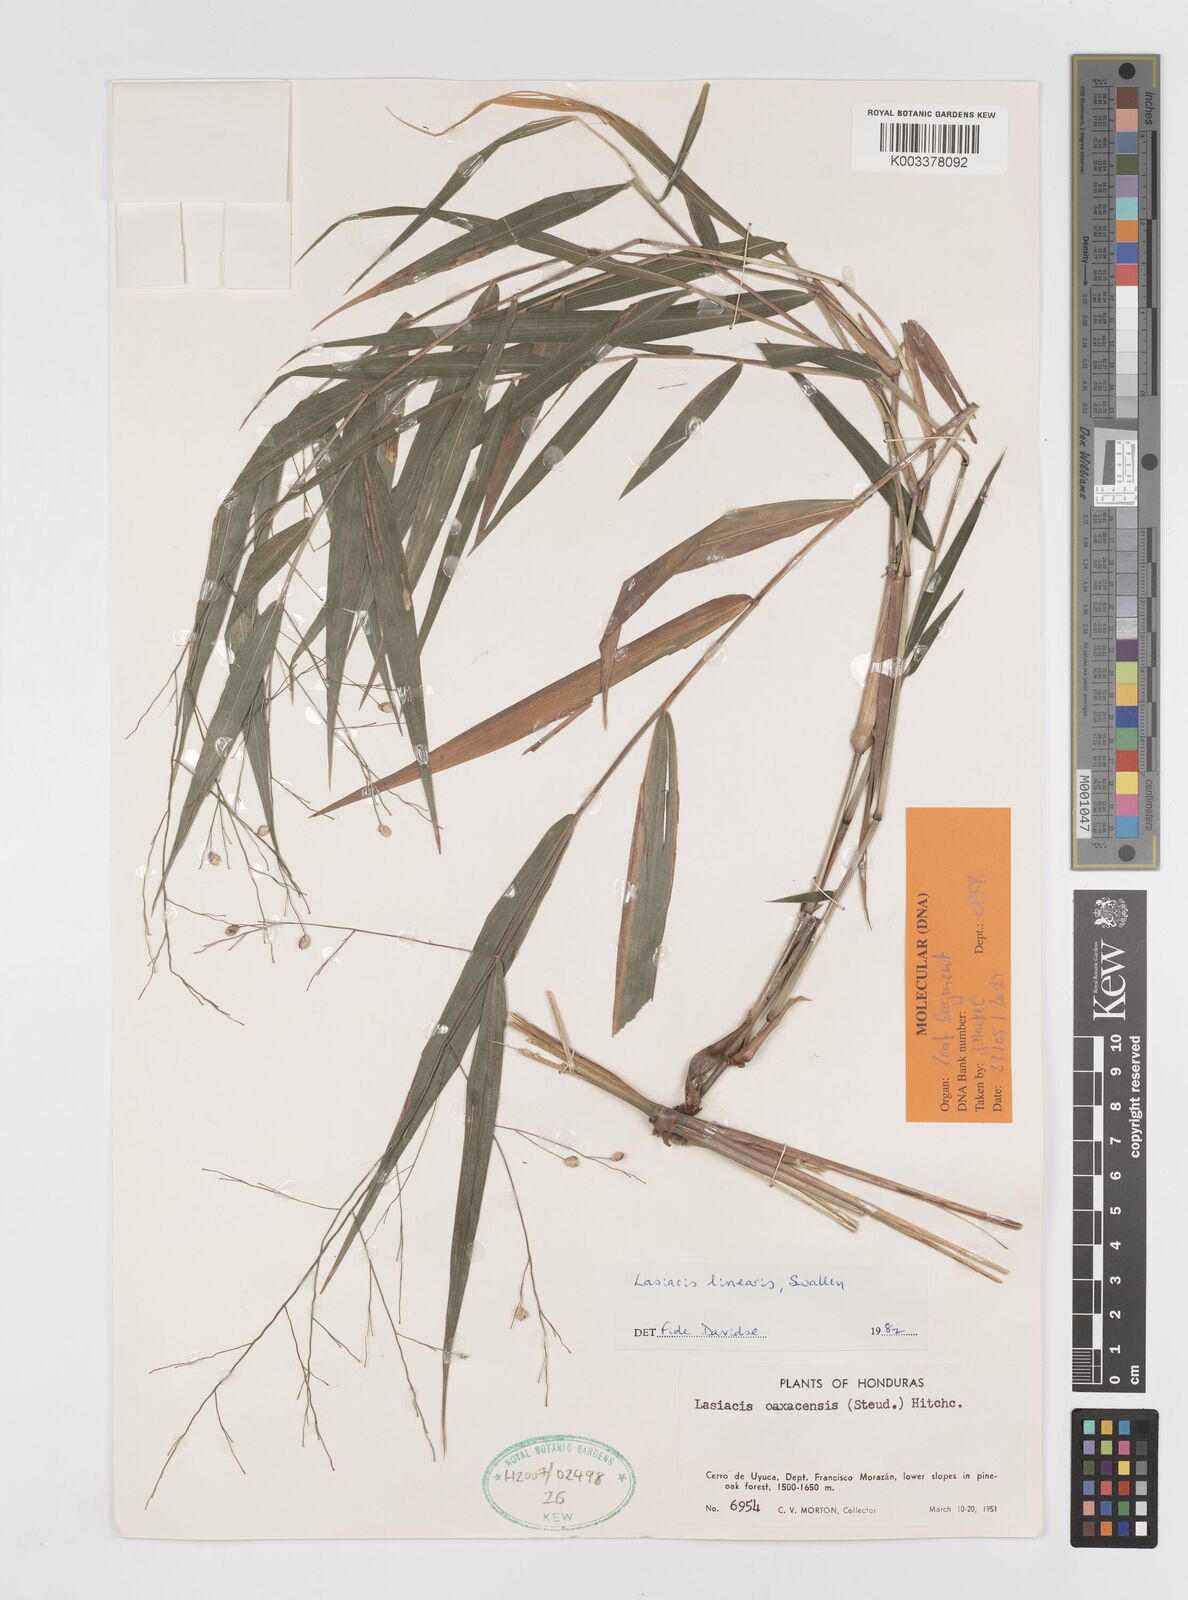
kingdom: Plantae
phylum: Tracheophyta
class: Liliopsida
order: Poales
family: Poaceae
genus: Lasiacis
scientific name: Lasiacis linearis
